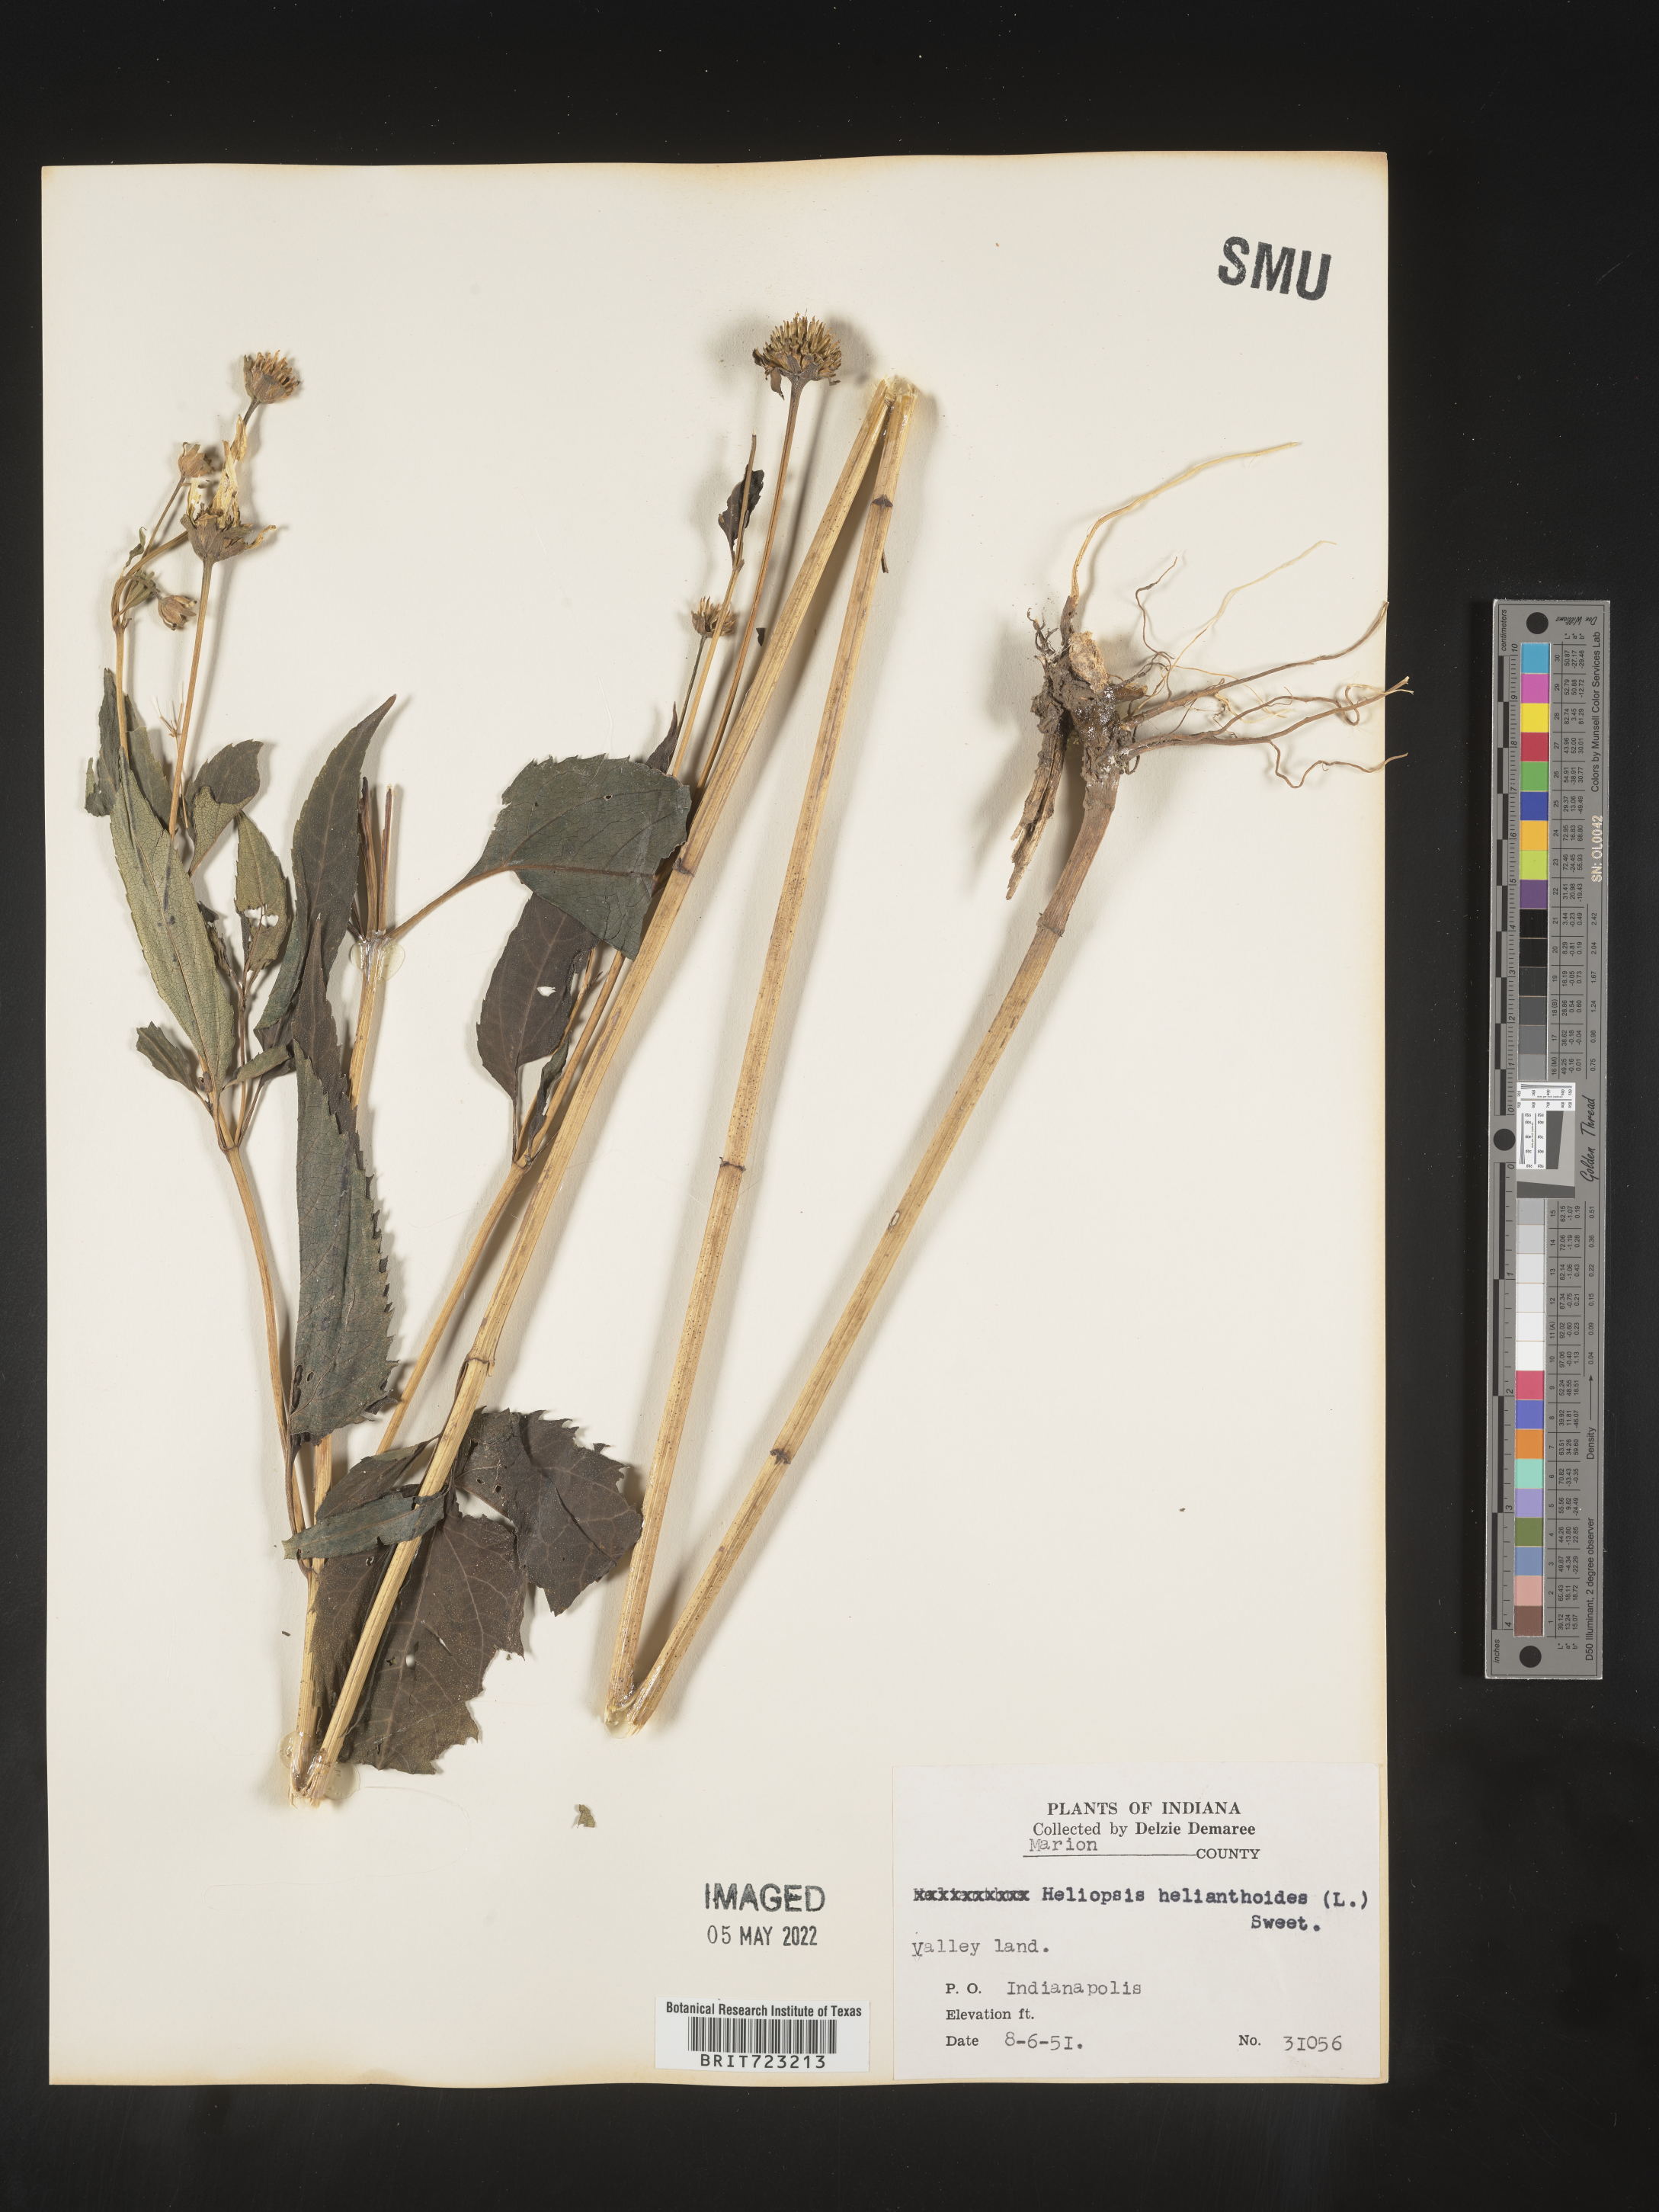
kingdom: Plantae
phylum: Tracheophyta
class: Magnoliopsida
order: Asterales
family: Asteraceae
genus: Heliopsis
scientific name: Heliopsis helianthoides
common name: False sunflower
